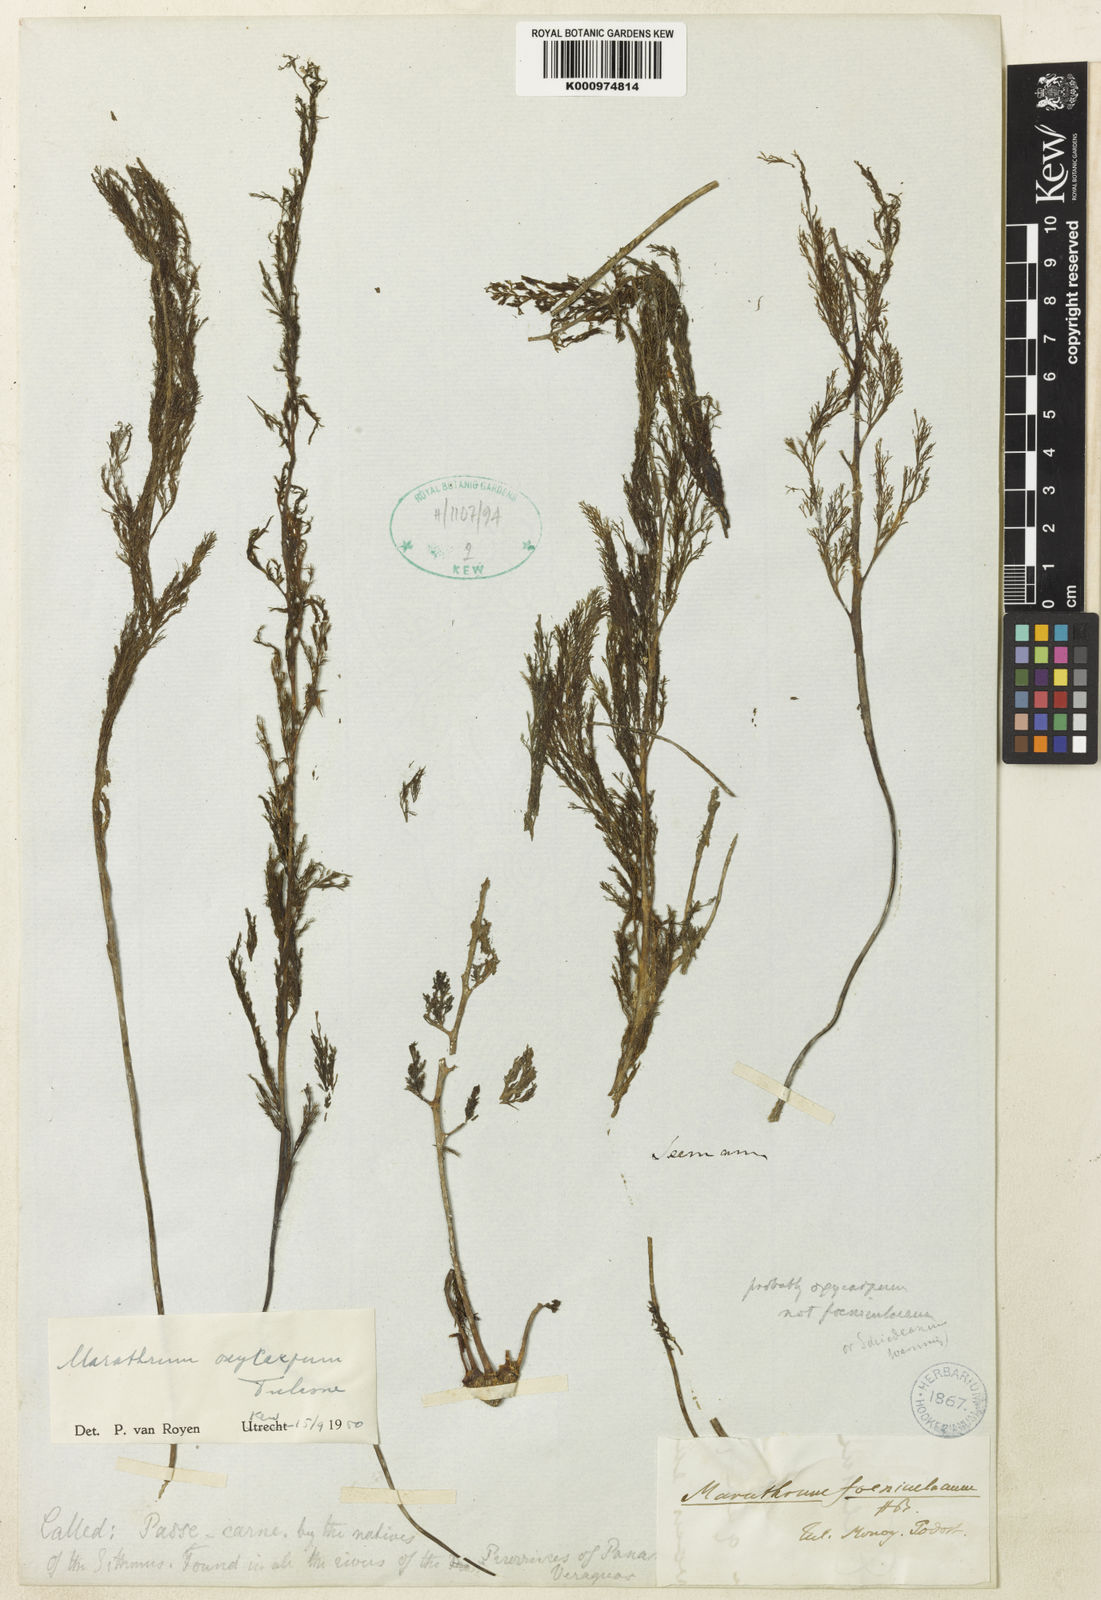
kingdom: Plantae
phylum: Tracheophyta
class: Magnoliopsida
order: Malpighiales
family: Podostemaceae
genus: Marathrum
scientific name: Marathrum foeniculaceum
